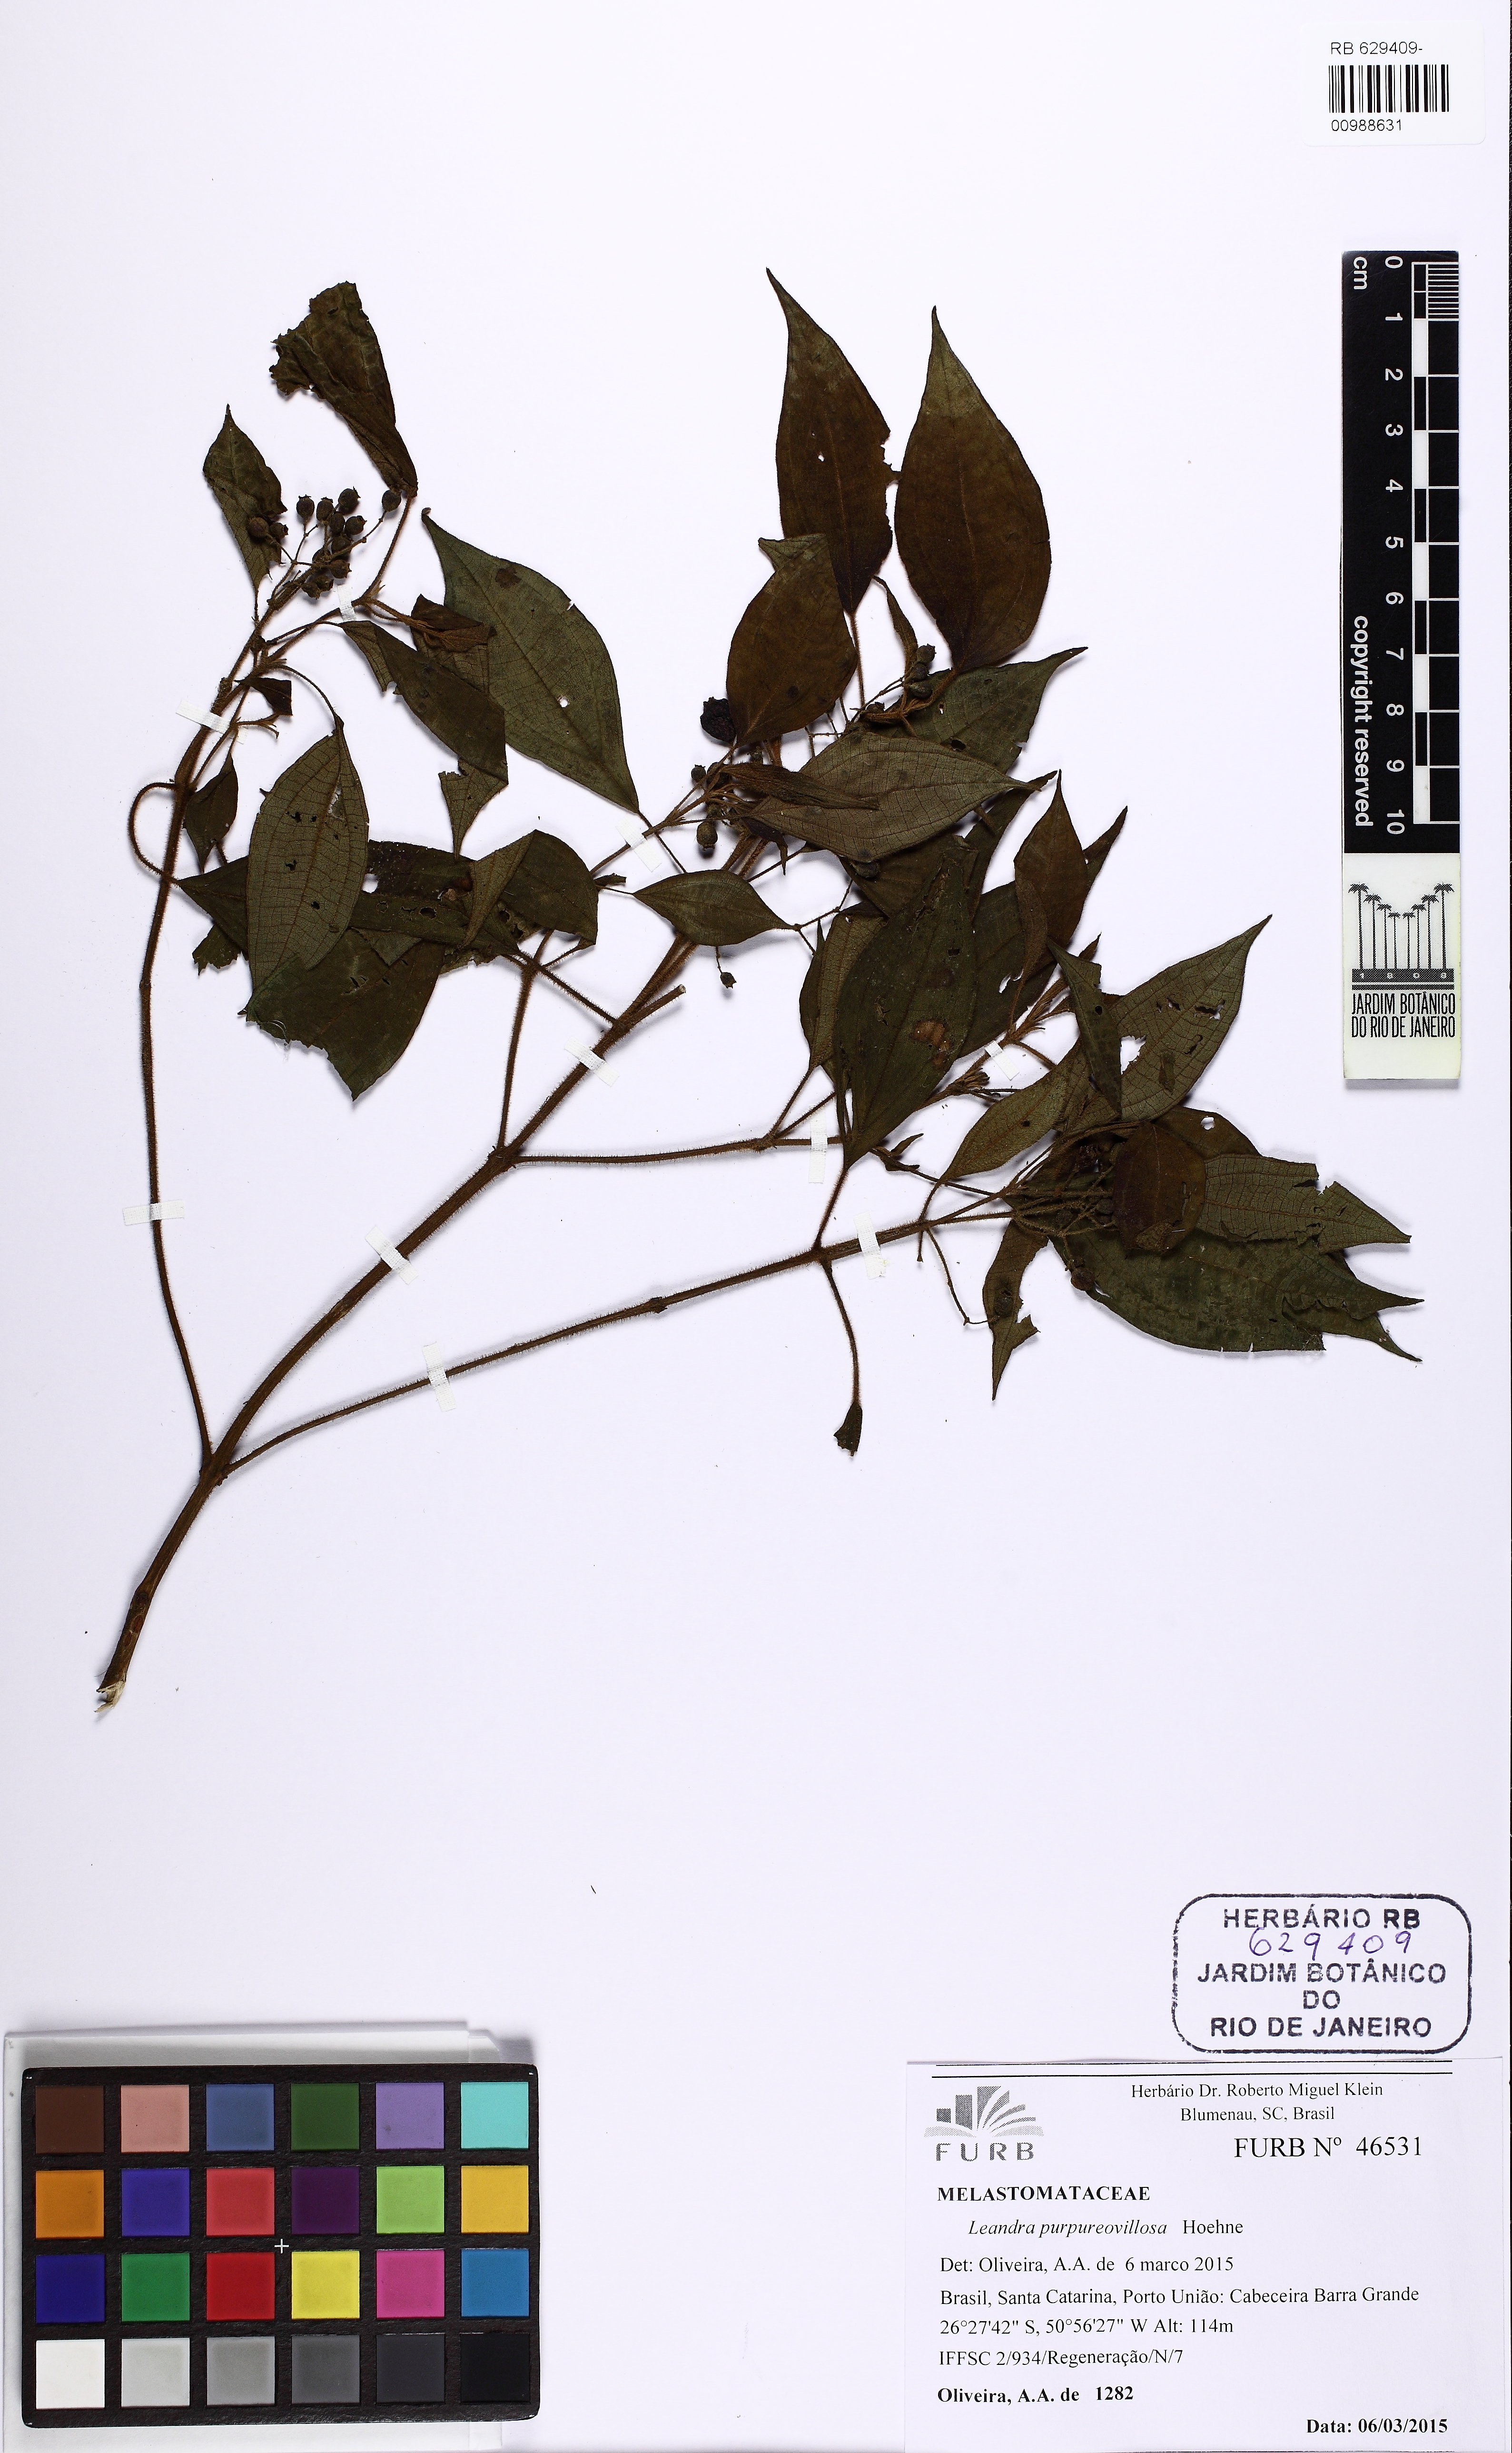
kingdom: Plantae
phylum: Tracheophyta
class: Magnoliopsida
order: Myrtales
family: Melastomataceae
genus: Miconia
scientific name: Miconia purpureovillosa
